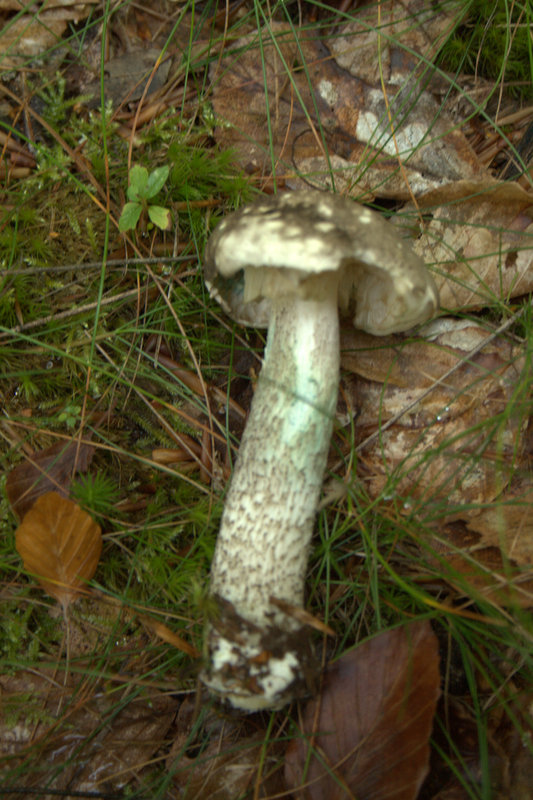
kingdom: Fungi
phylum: Basidiomycota
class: Agaricomycetes
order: Boletales
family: Boletaceae
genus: Leccinum
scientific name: Leccinum variicolor
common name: flammet skælrørhat
